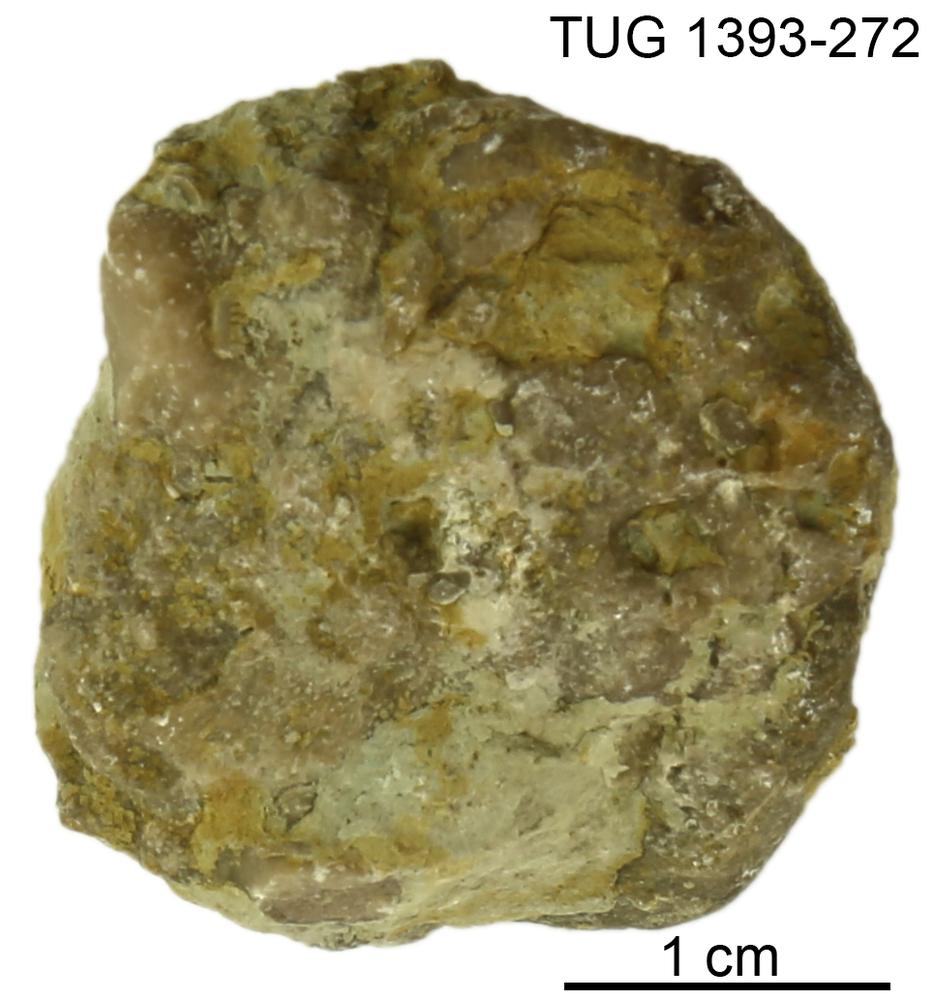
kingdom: Animalia
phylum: Bryozoa
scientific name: Bryozoa
